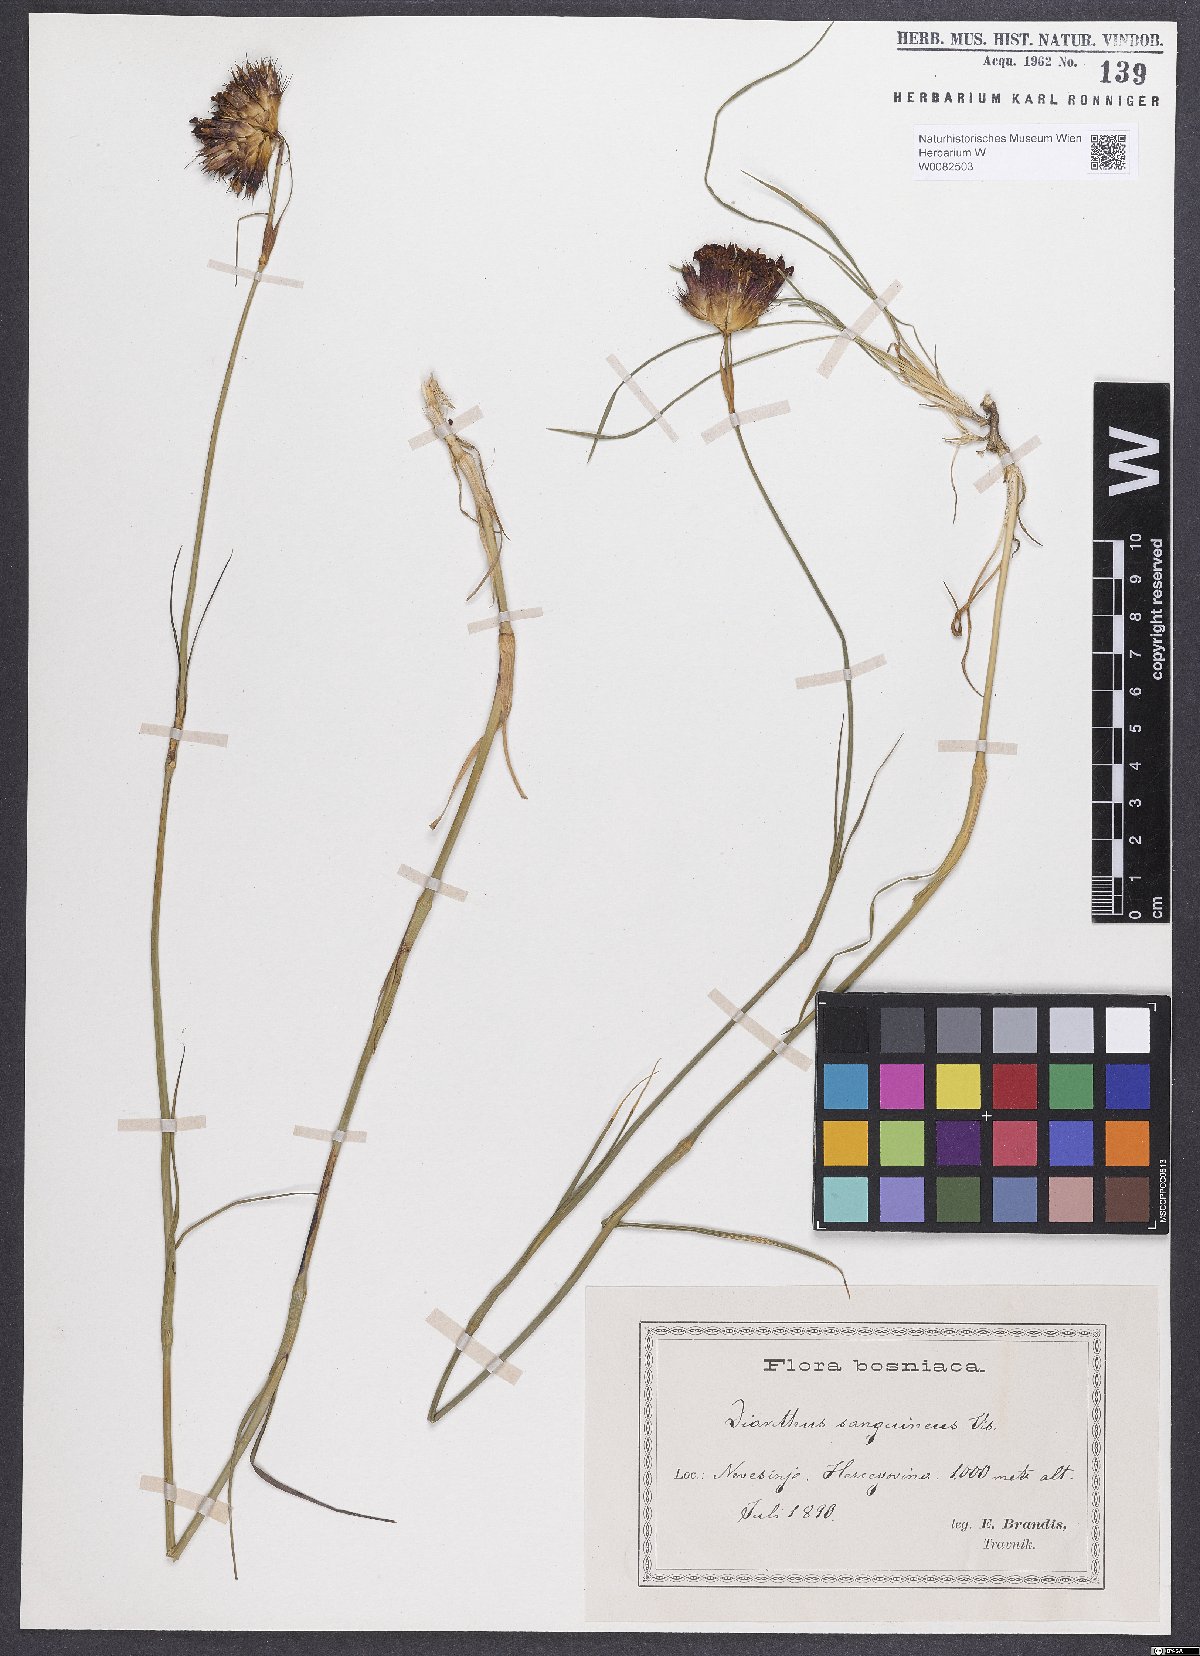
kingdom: Plantae
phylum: Tracheophyta
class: Magnoliopsida
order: Caryophyllales
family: Caryophyllaceae
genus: Dianthus
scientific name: Dianthus carthusianorum
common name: Carthusian pink
